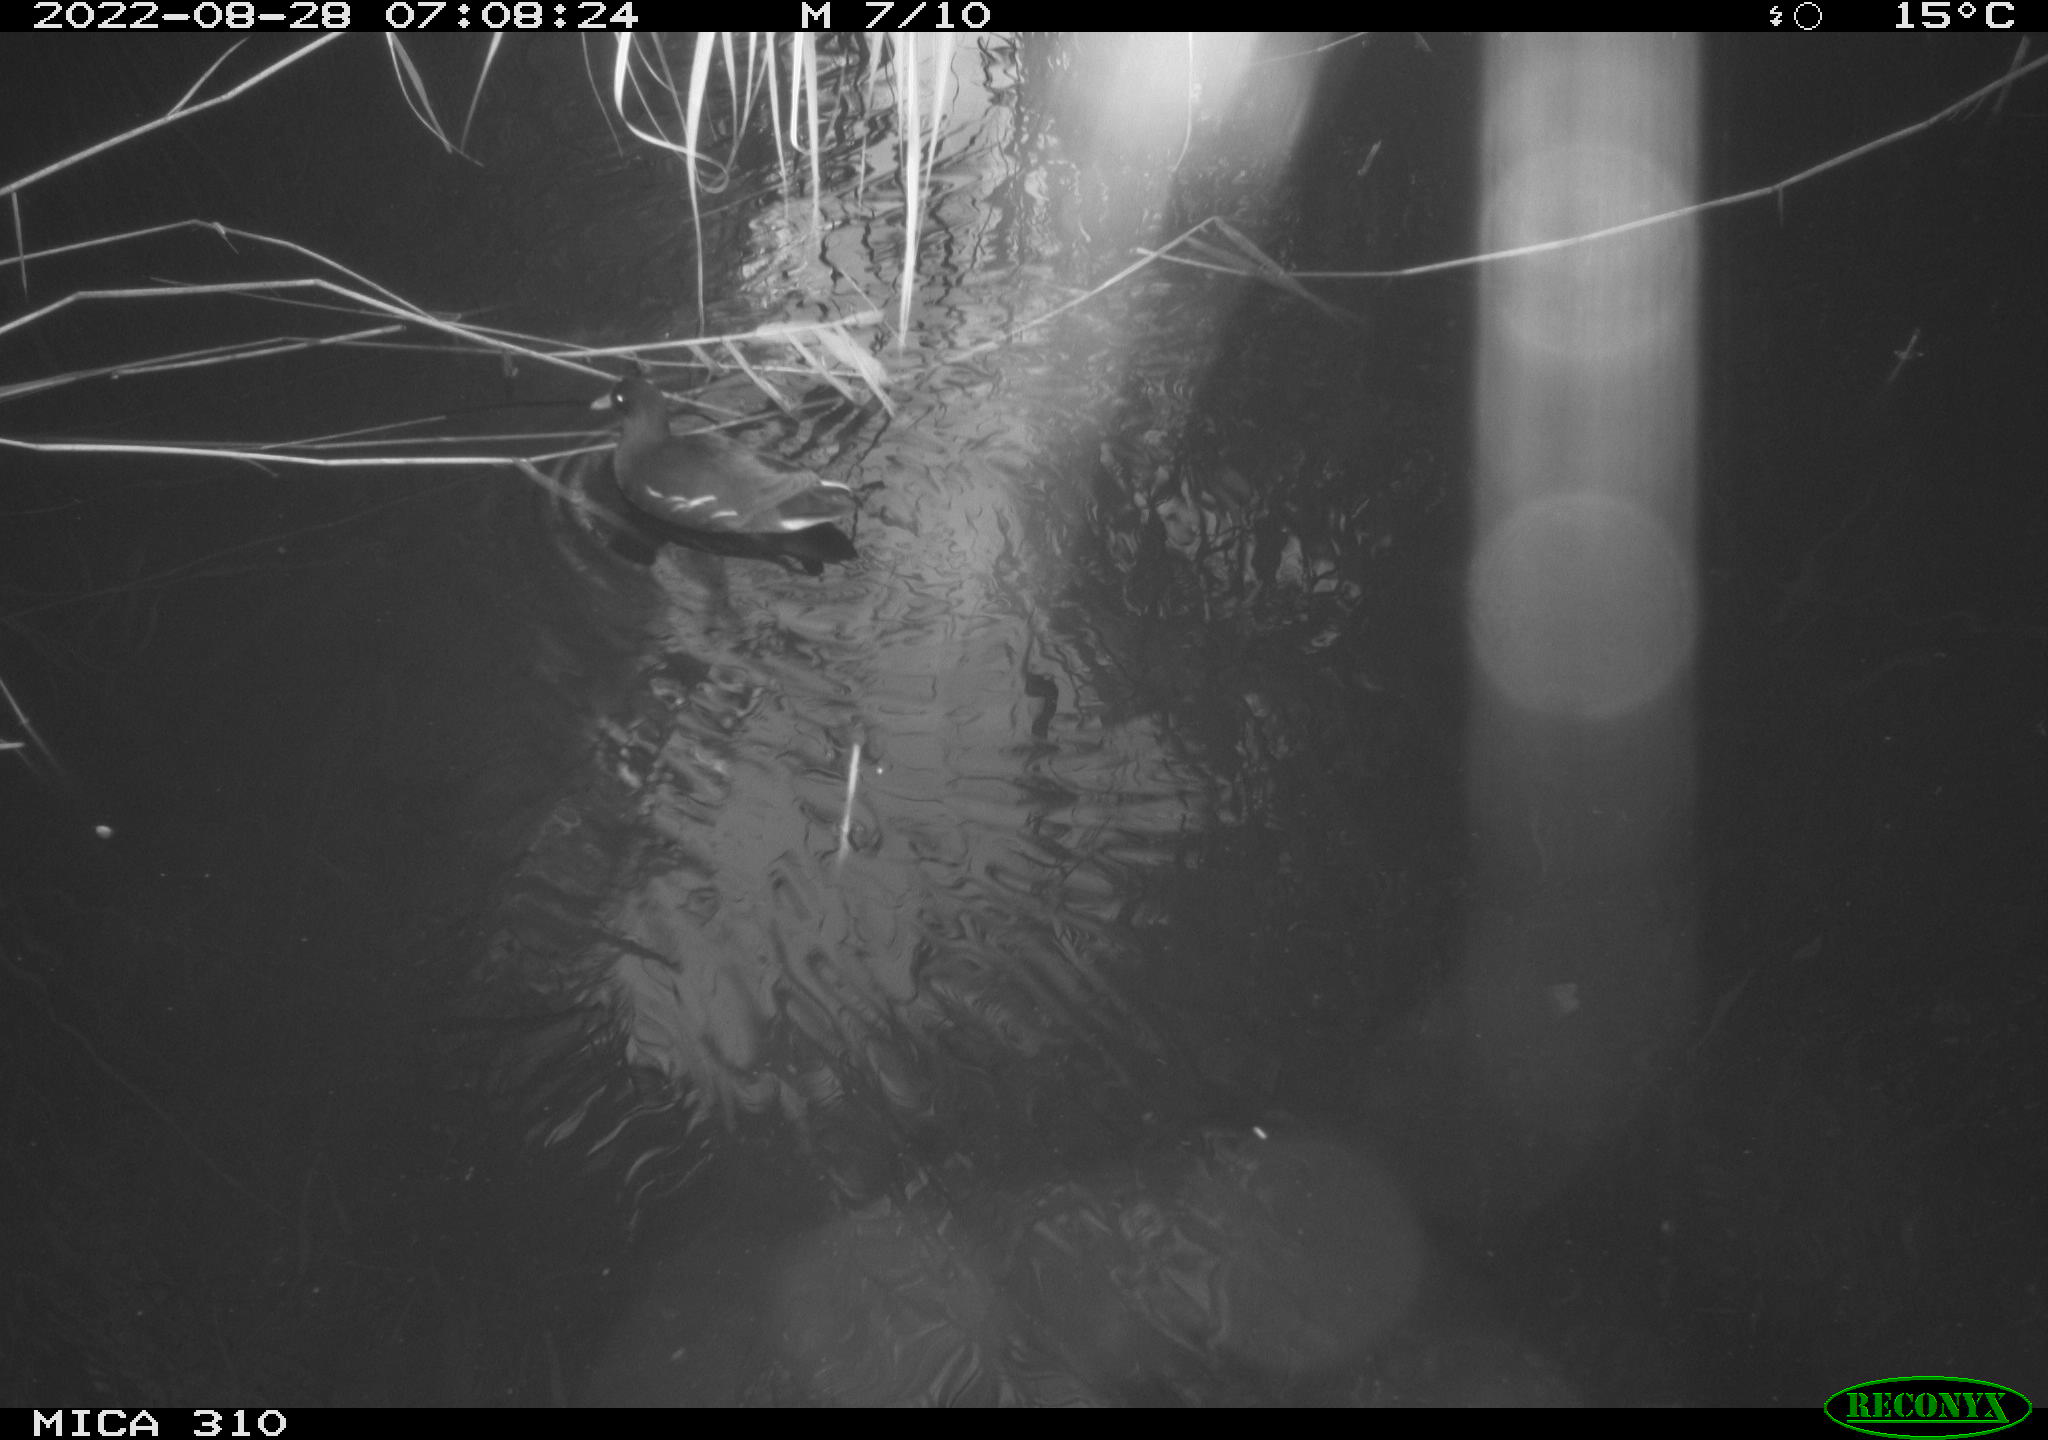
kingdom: Animalia
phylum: Chordata
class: Aves
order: Gruiformes
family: Rallidae
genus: Gallinula
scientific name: Gallinula chloropus
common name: Common moorhen
